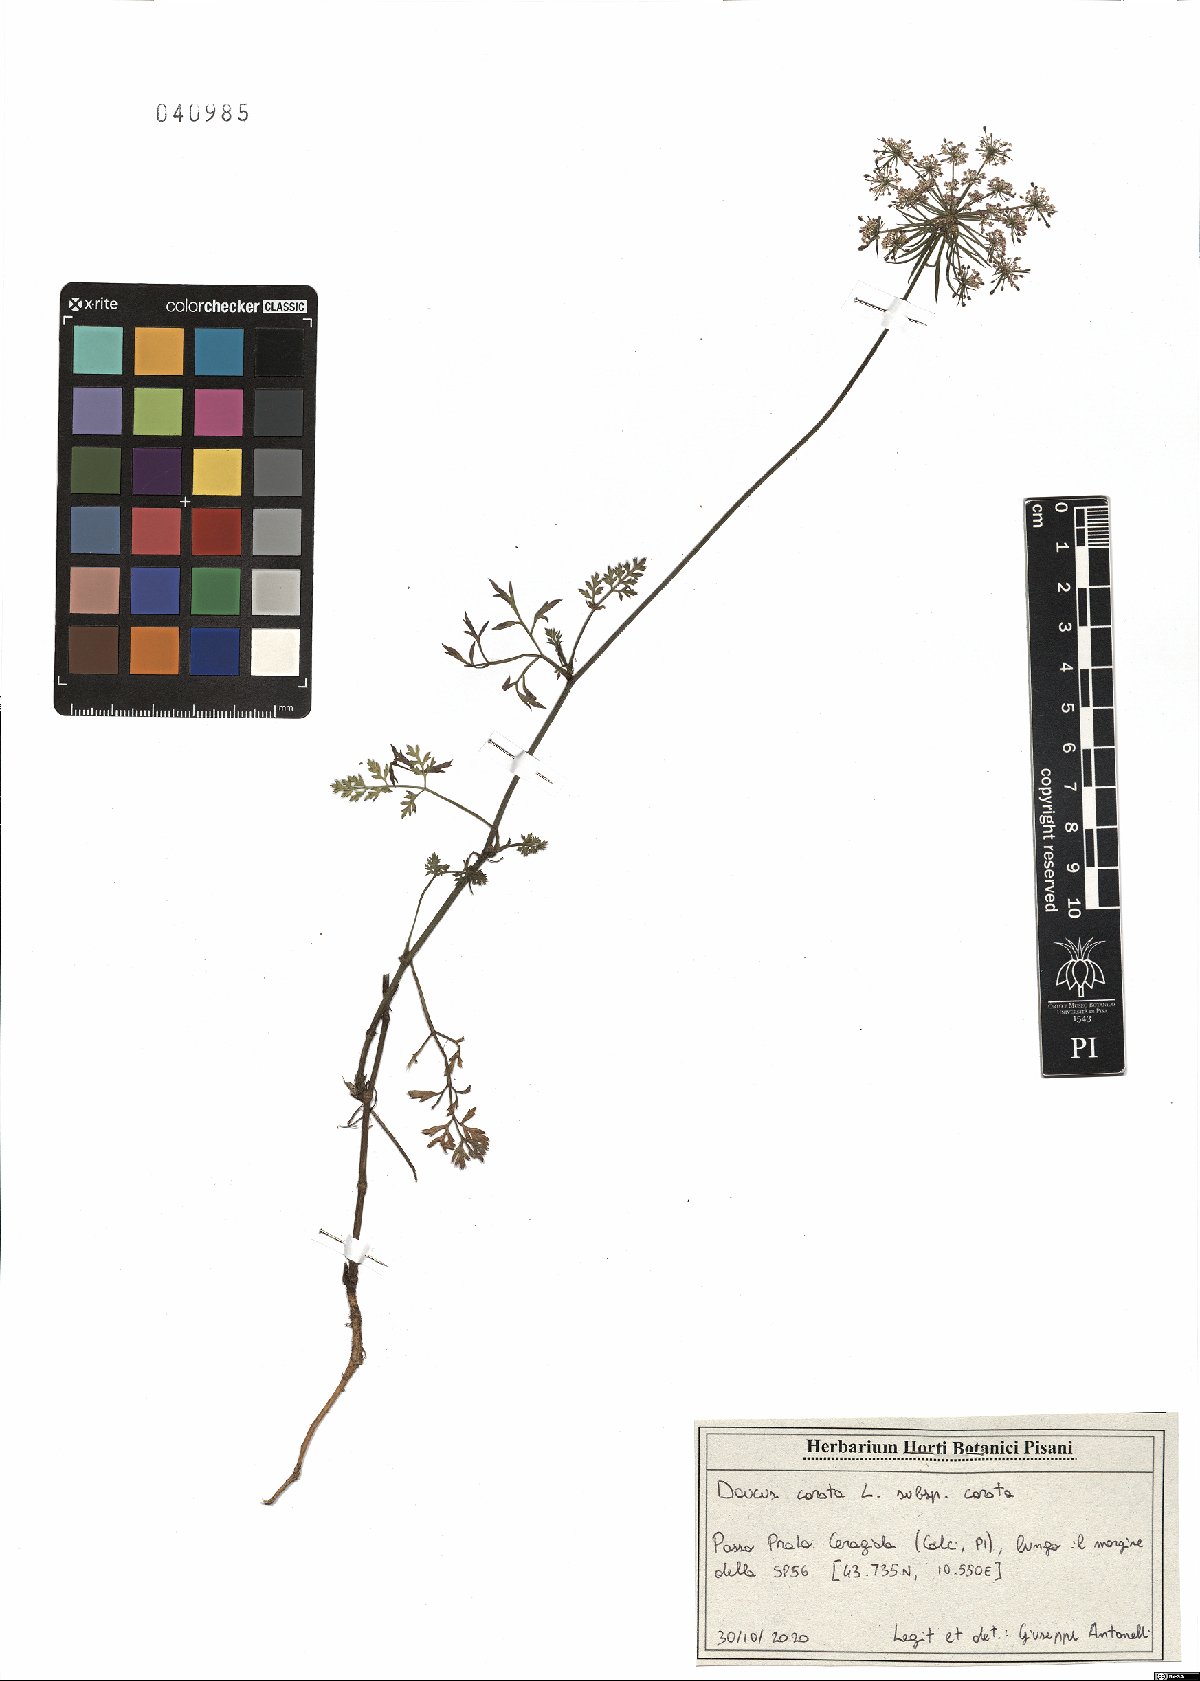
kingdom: Plantae
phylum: Tracheophyta
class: Magnoliopsida
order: Apiales
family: Apiaceae
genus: Daucus
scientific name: Daucus carota
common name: Wild carrot
